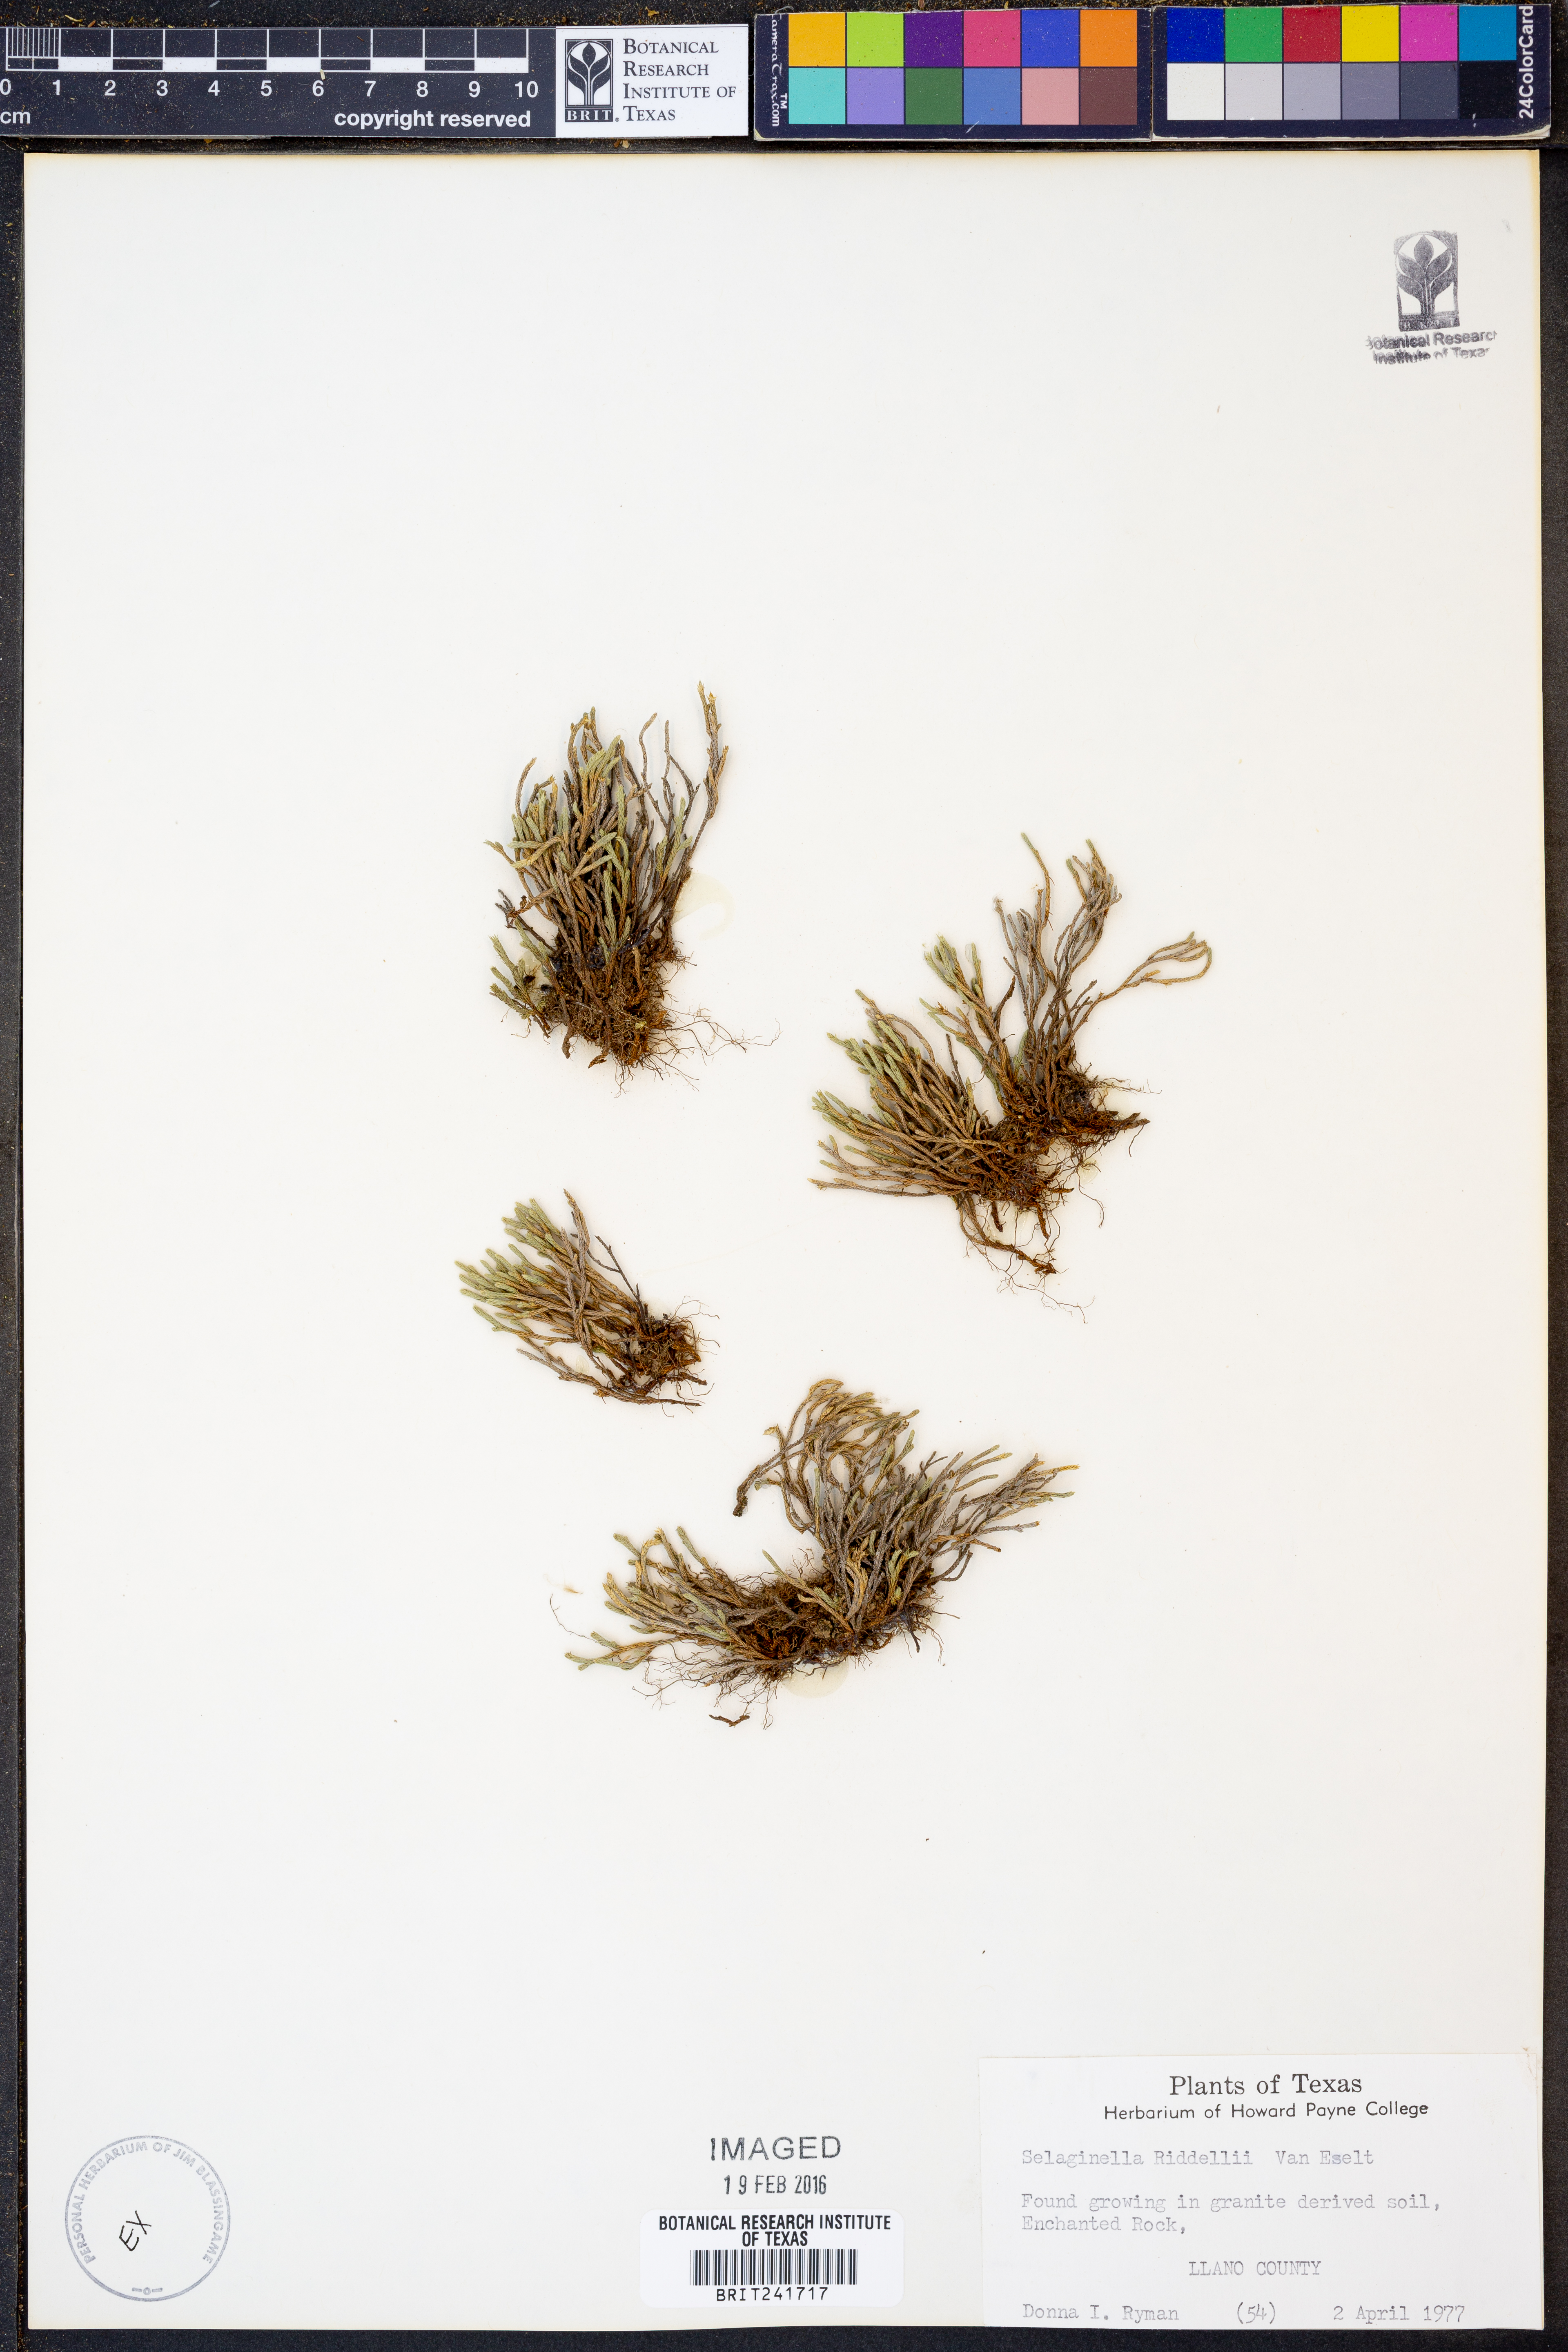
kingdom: Plantae
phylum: Tracheophyta
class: Lycopodiopsida
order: Selaginellales
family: Selaginellaceae
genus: Selaginella
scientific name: Selaginella corallina
